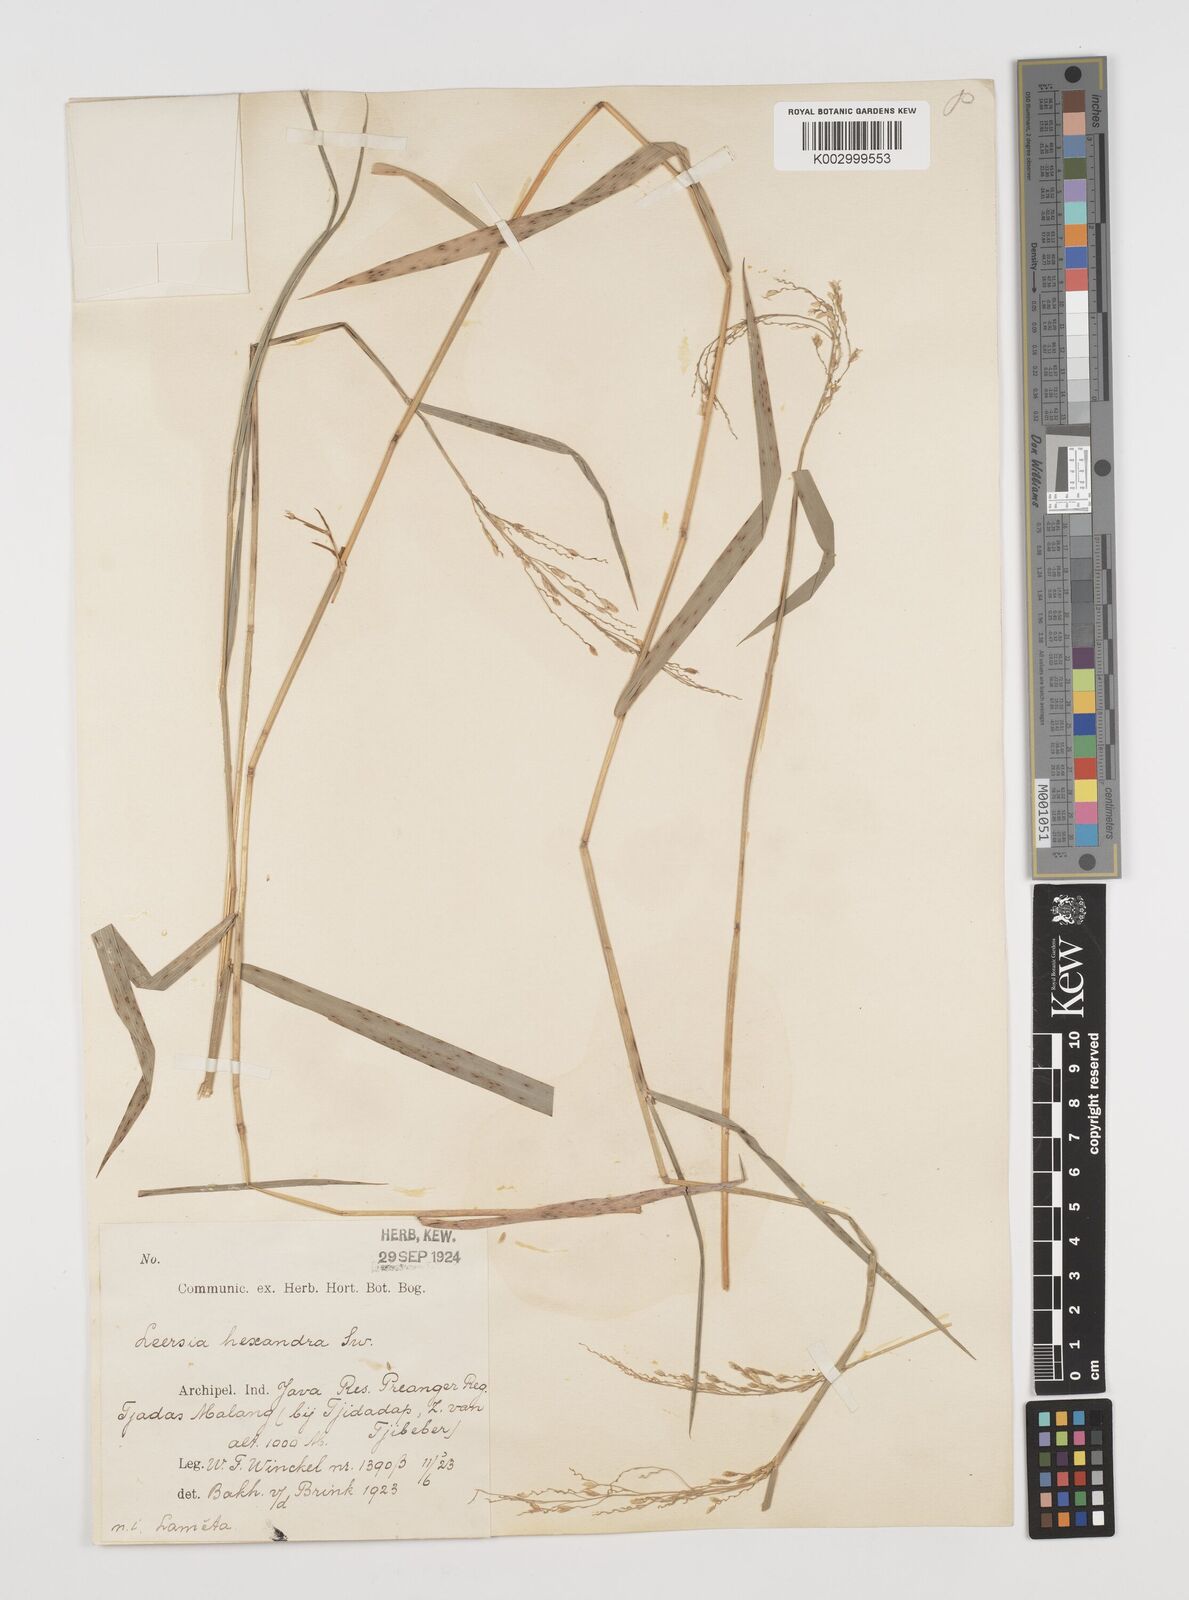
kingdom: Plantae
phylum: Tracheophyta
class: Liliopsida
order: Poales
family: Poaceae
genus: Leersia
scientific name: Leersia hexandra
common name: Southern cut grass
